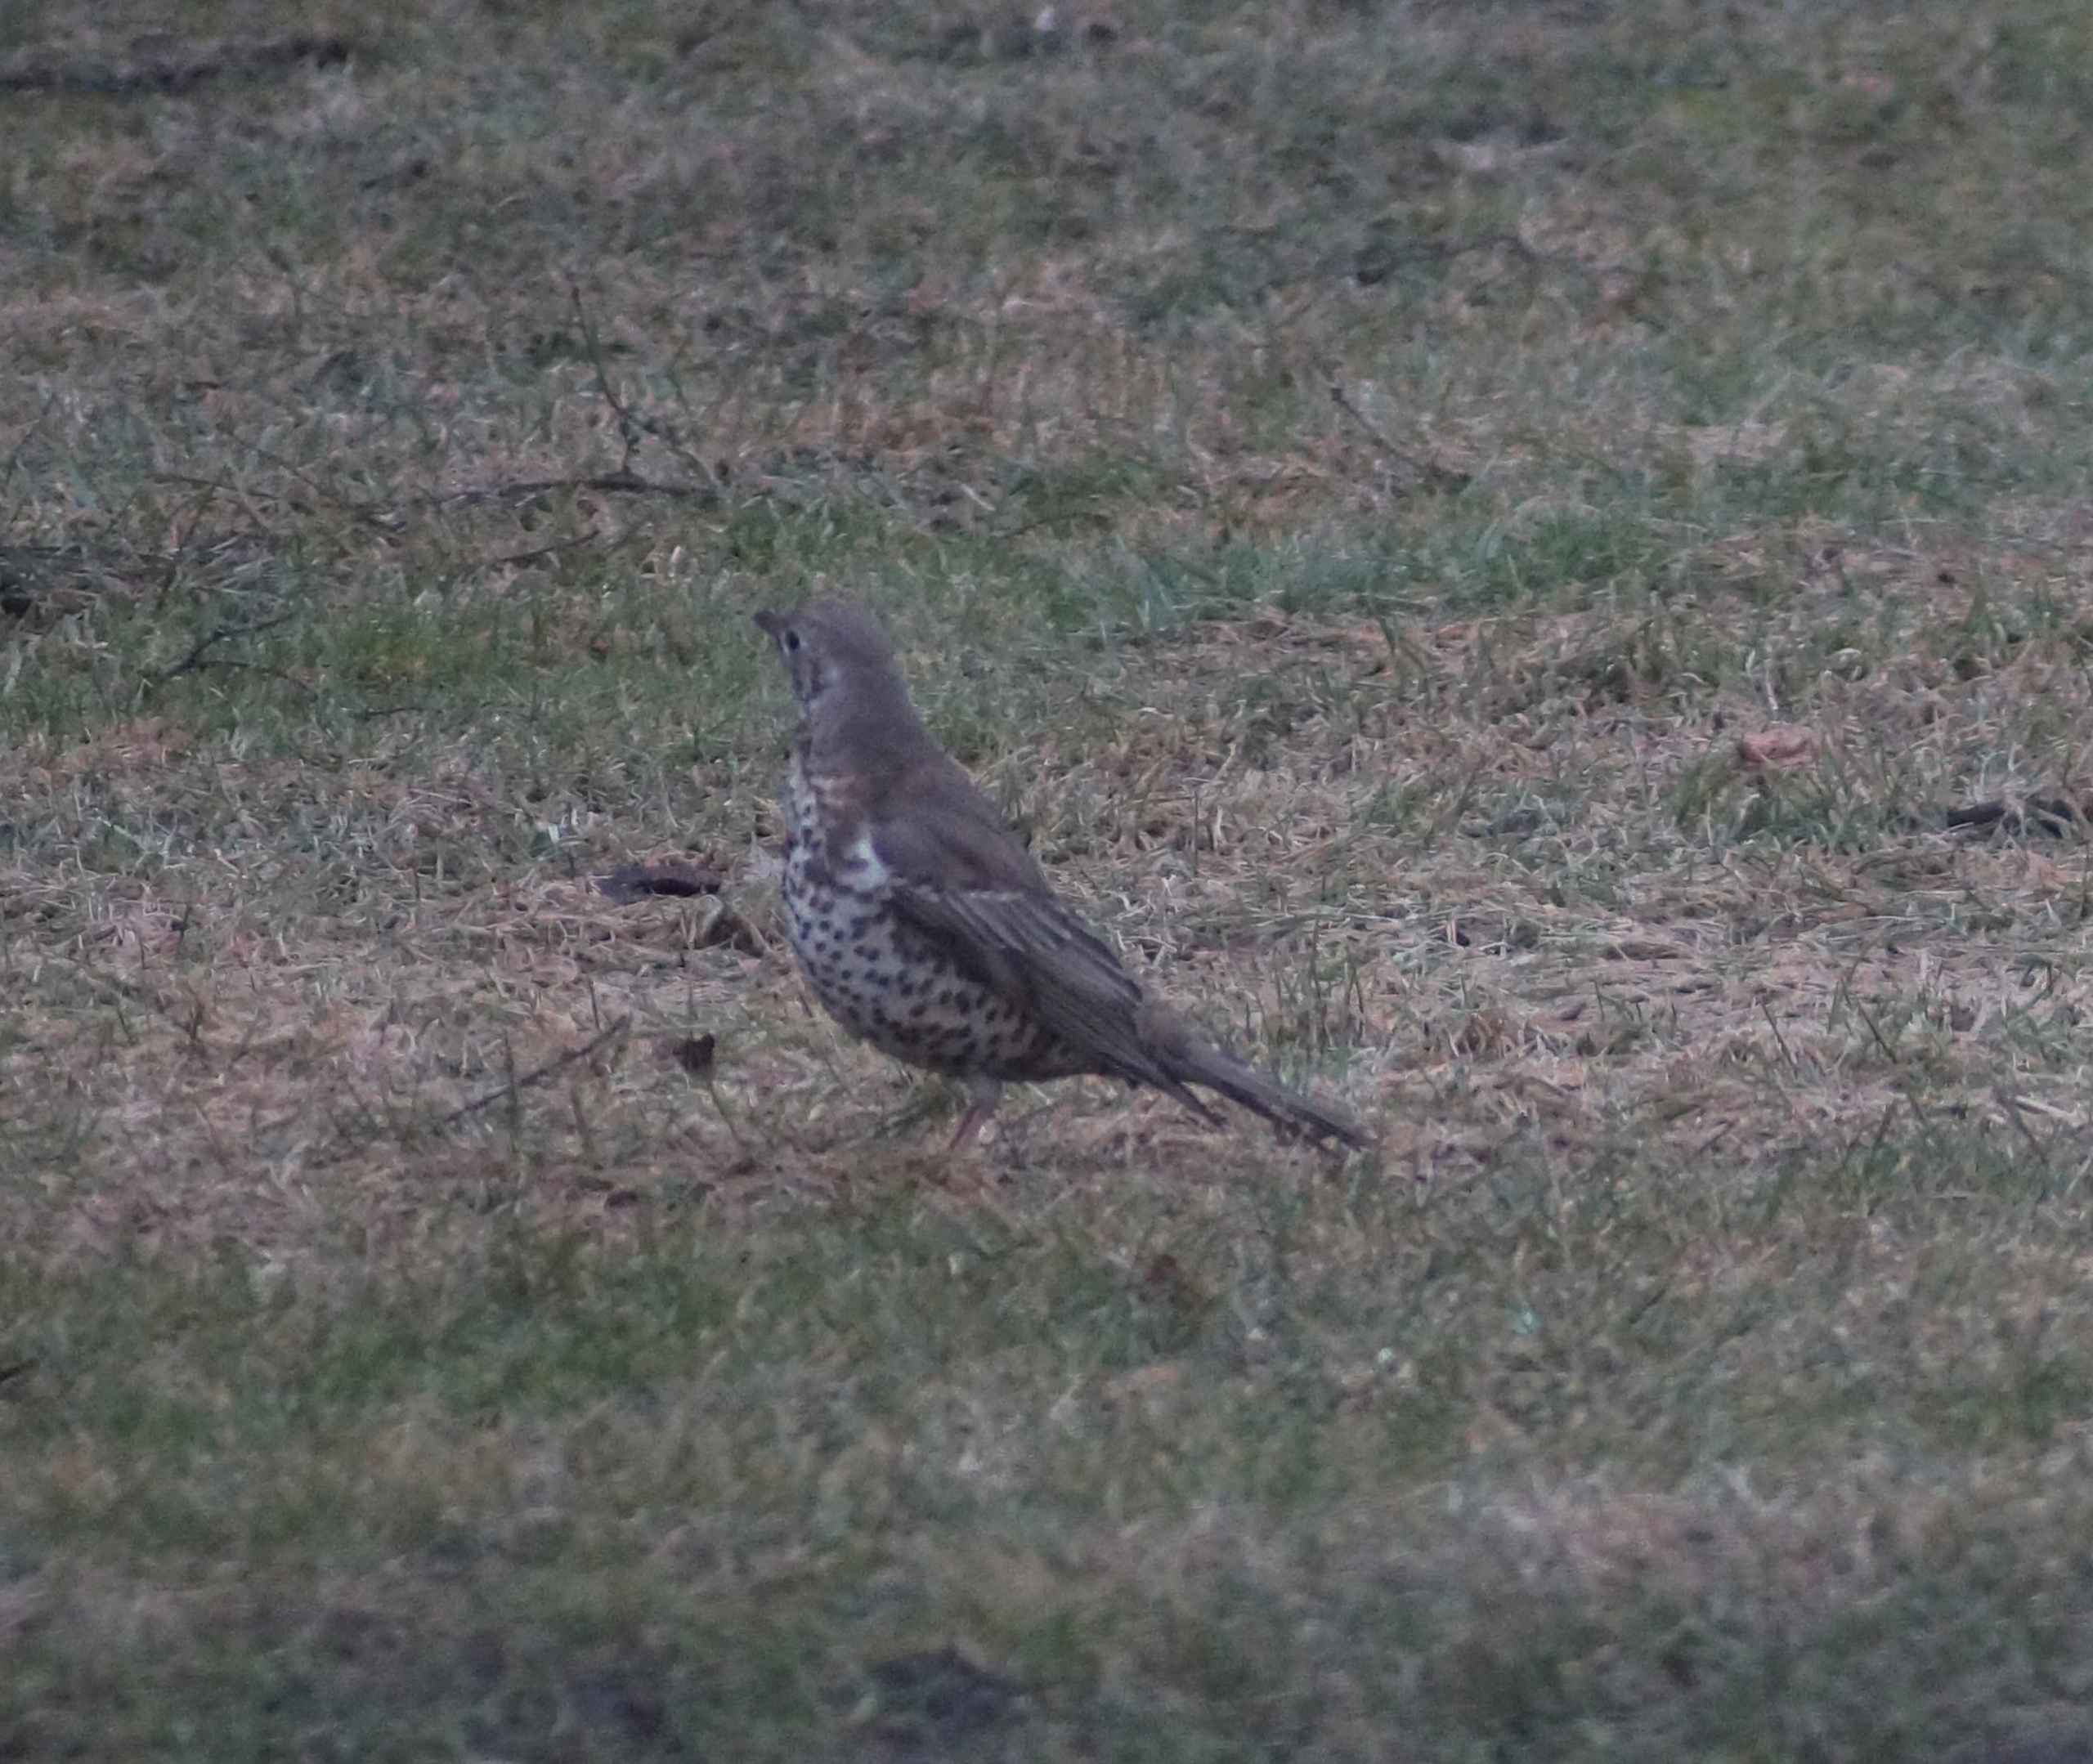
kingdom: Animalia
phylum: Chordata
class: Aves
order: Passeriformes
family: Turdidae
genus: Turdus
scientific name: Turdus viscivorus
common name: Misteldrossel
